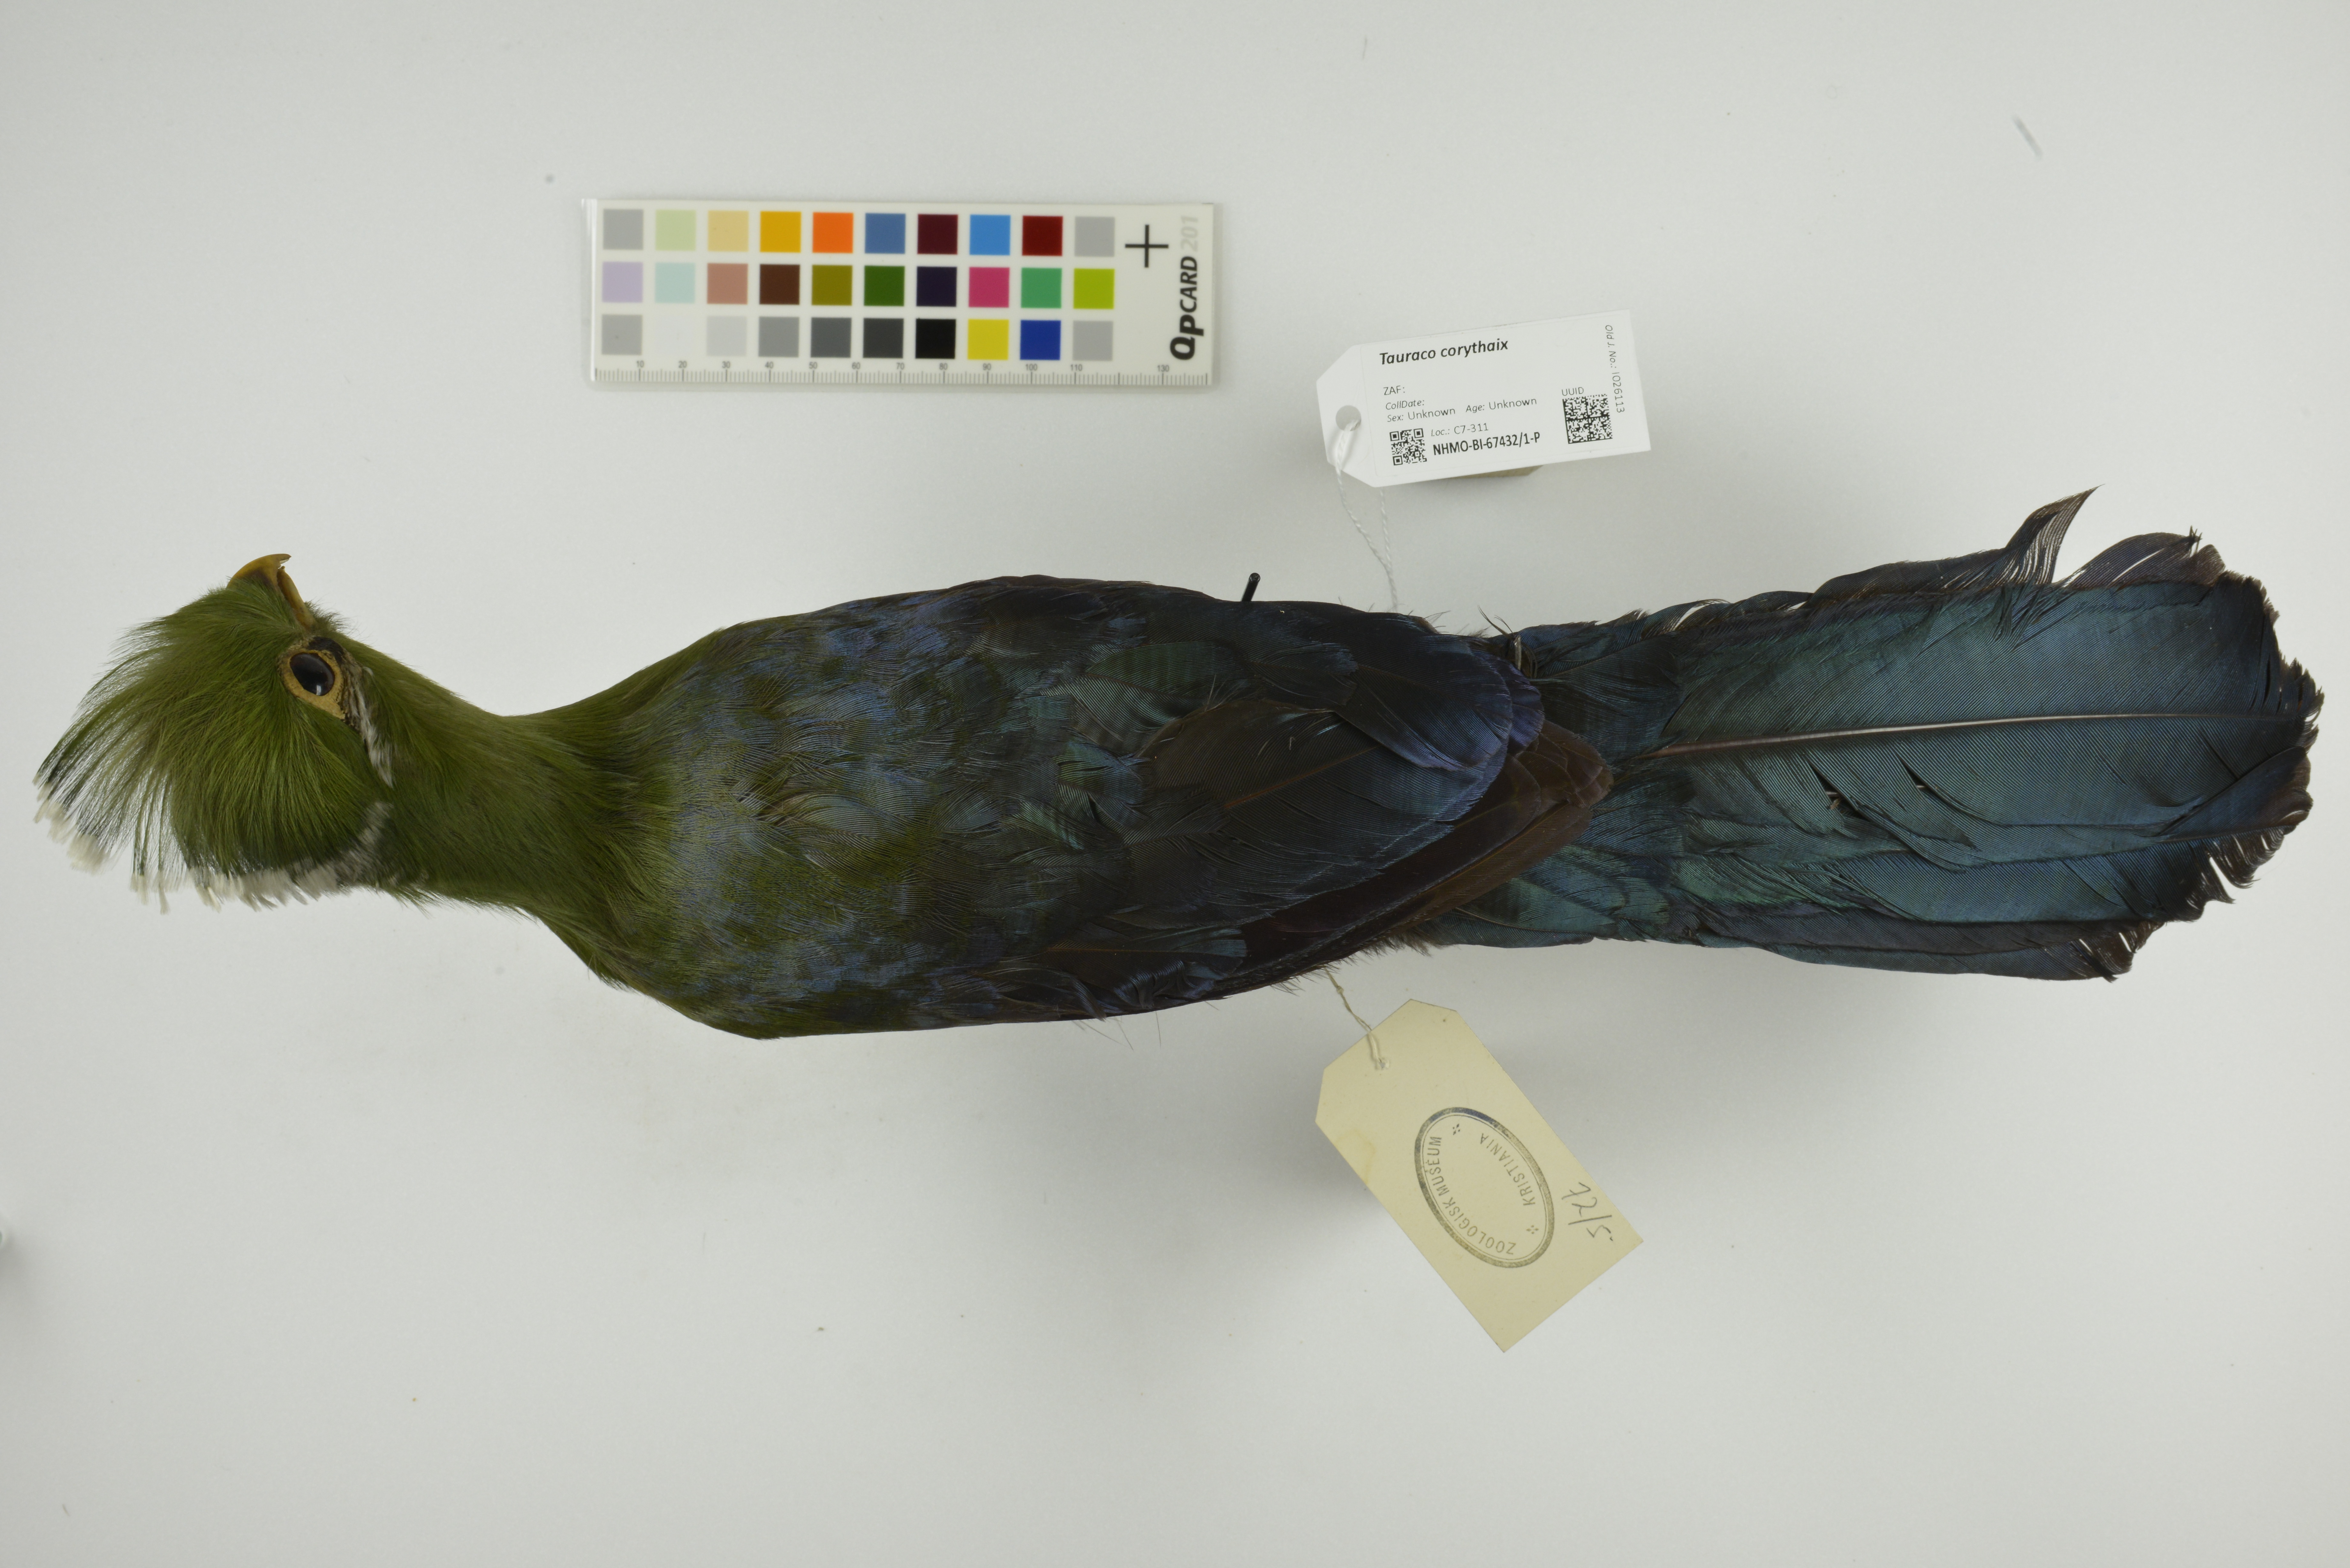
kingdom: Animalia
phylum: Chordata
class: Aves
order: Musophagiformes
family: Musophagidae
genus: Tauraco
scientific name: Tauraco corythaix
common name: Knysna turaco
